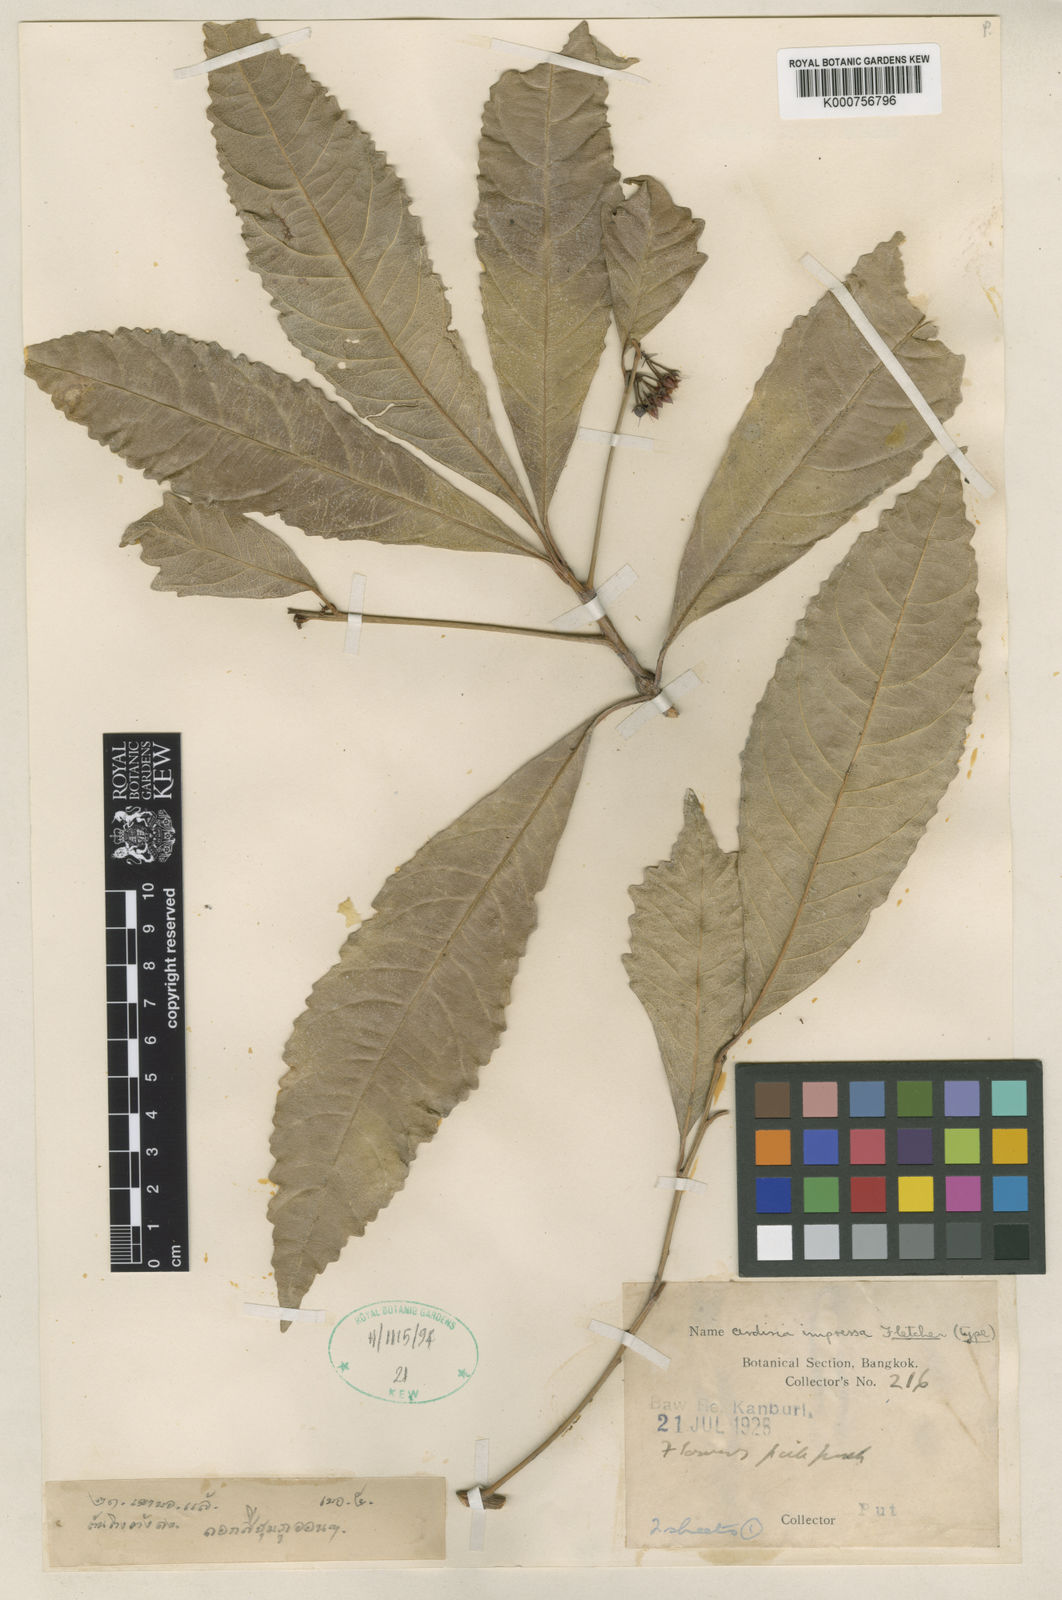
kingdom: Plantae
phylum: Tracheophyta
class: Magnoliopsida
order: Ericales
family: Primulaceae
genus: Ardisia
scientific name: Ardisia impressa
